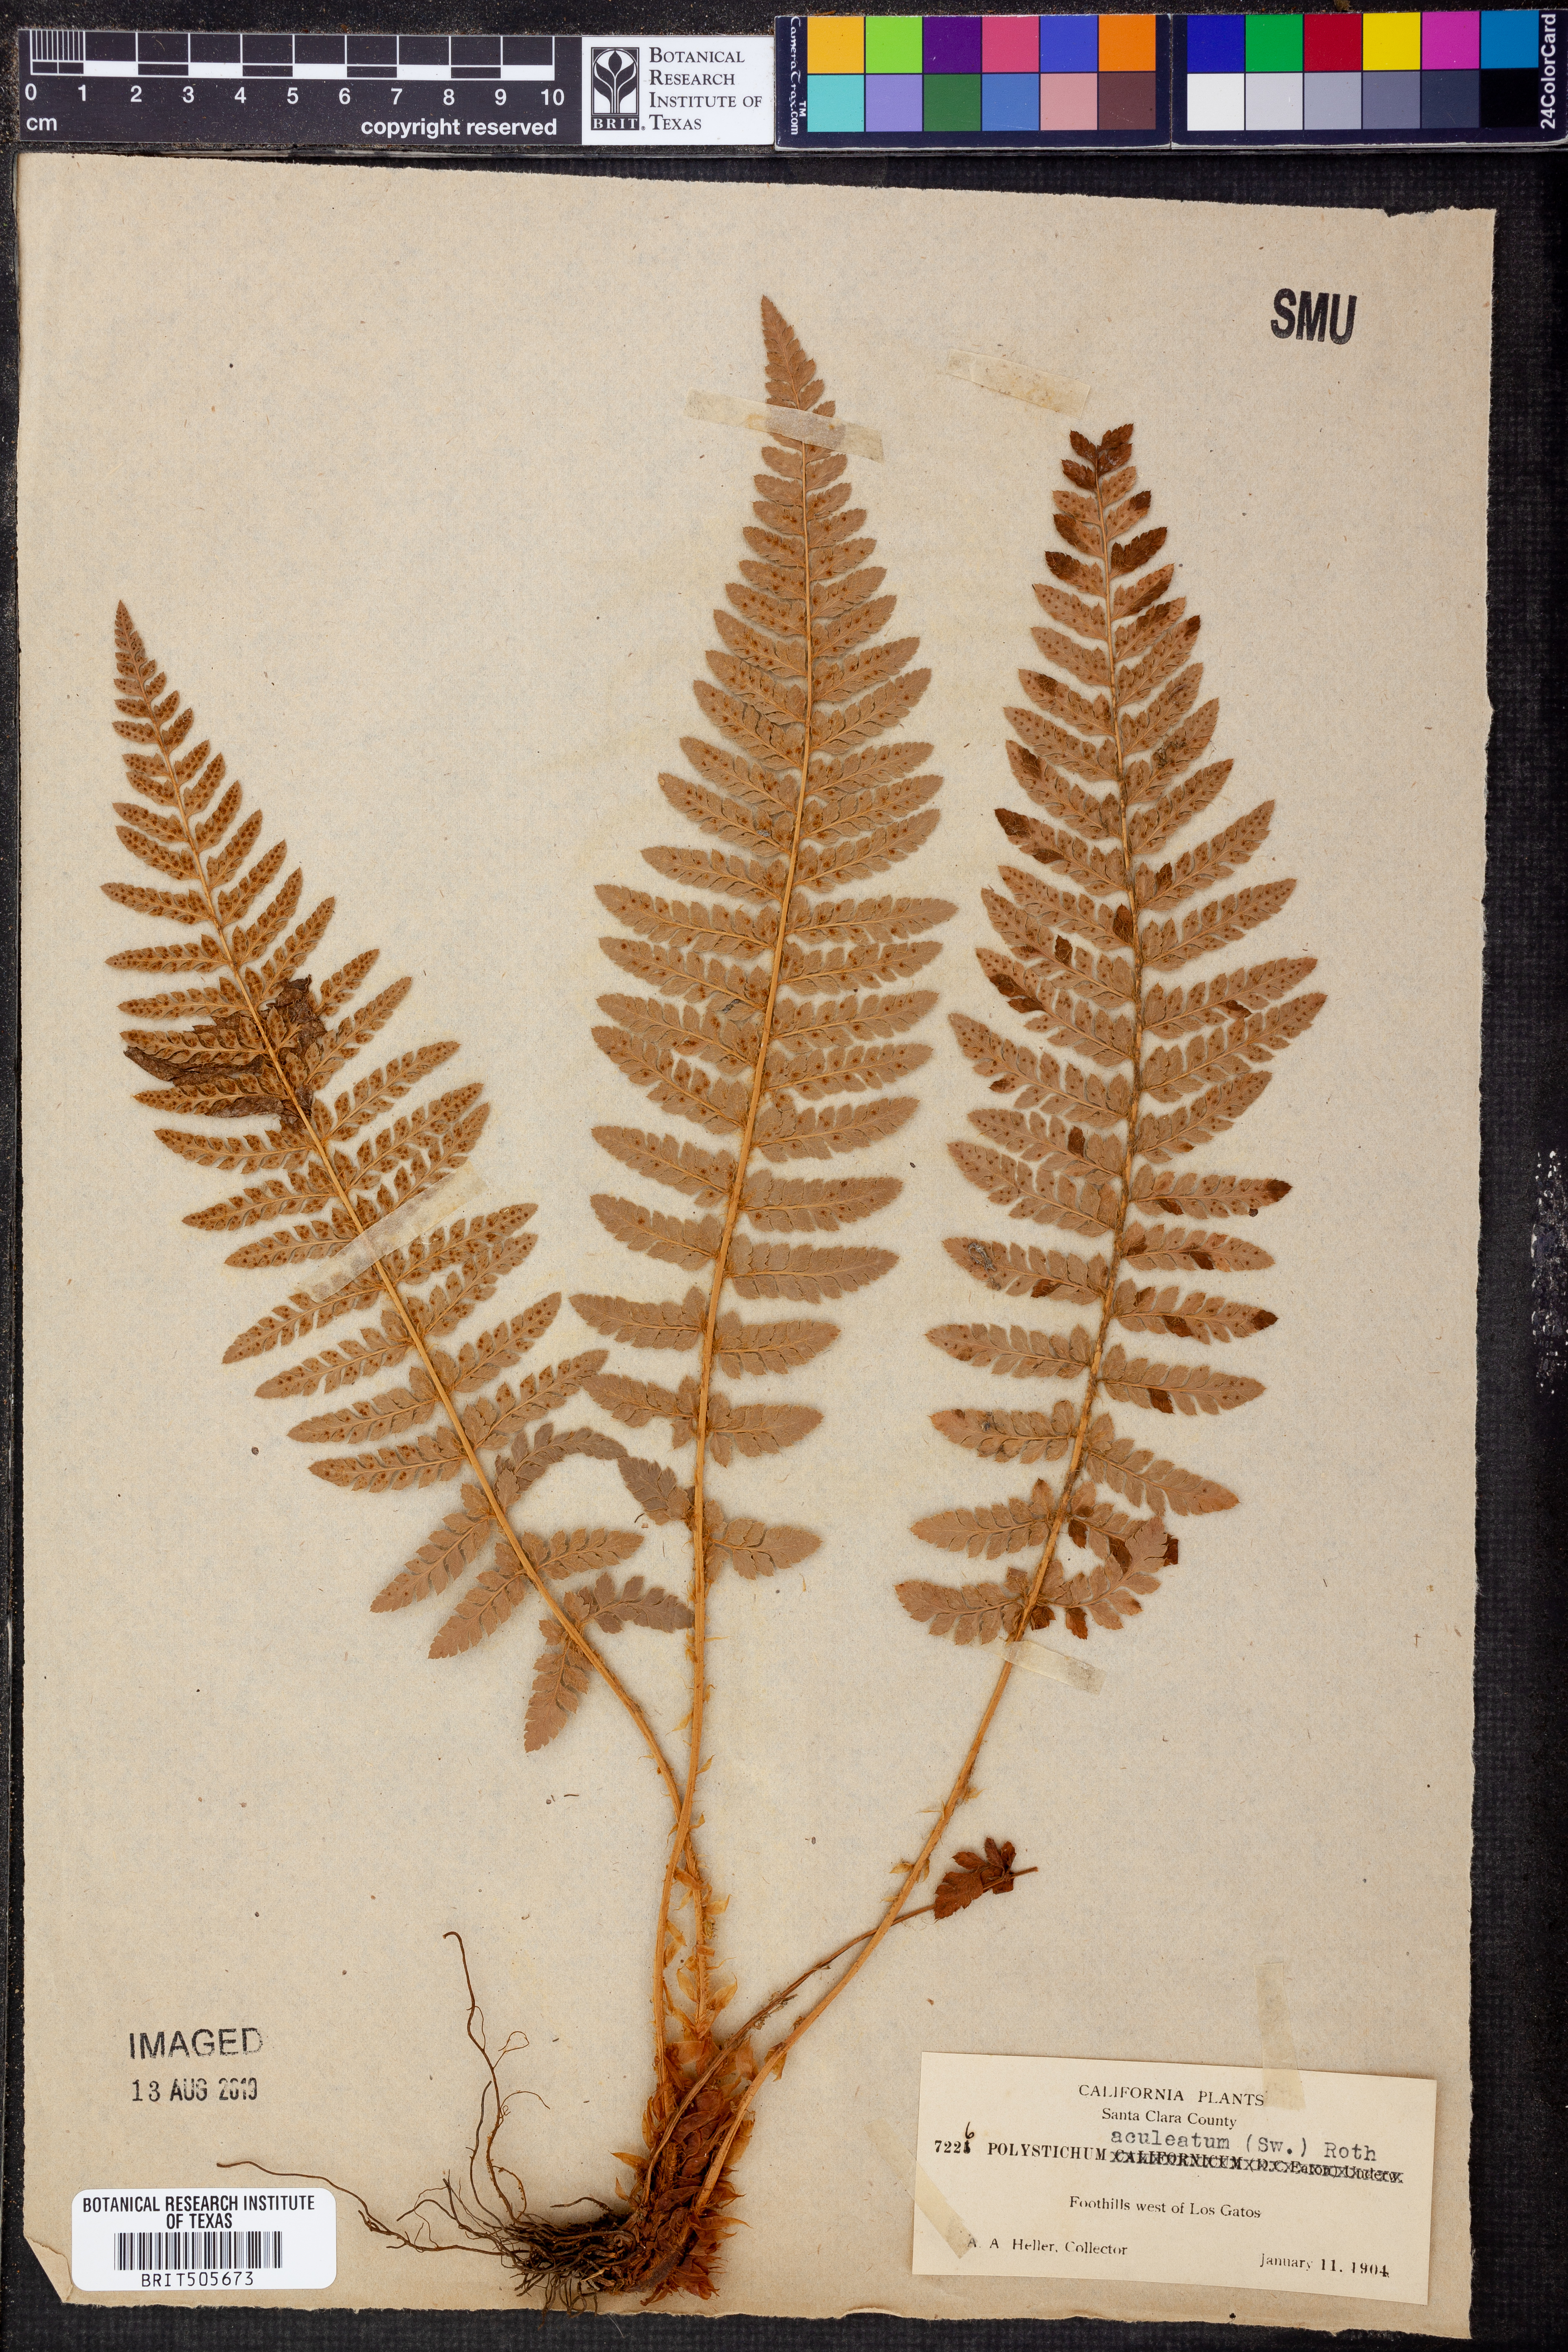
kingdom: Plantae
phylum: Tracheophyta
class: Polypodiopsida
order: Polypodiales
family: Dryopteridaceae
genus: Polystichum
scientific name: Polystichum aculeatum
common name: Hard shield-fern
